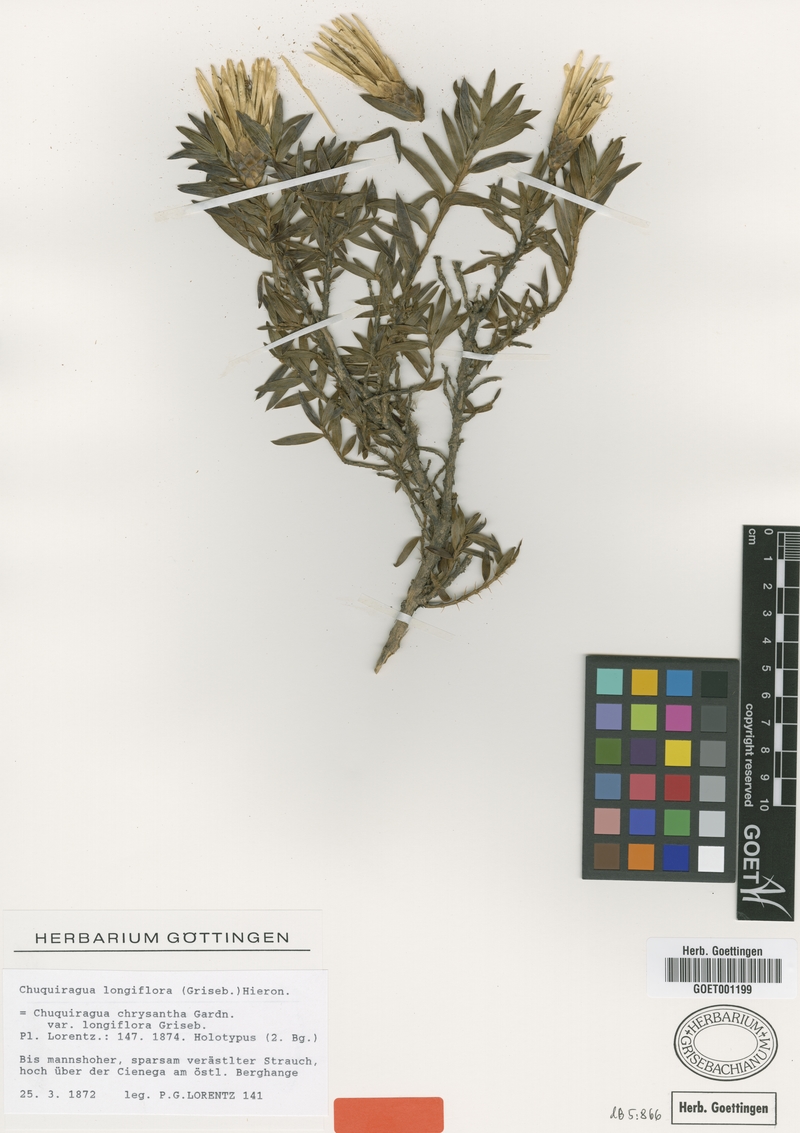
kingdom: Plantae
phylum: Tracheophyta
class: Magnoliopsida
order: Asterales
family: Asteraceae
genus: Chuquiraga
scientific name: Chuquiraga longiflora
